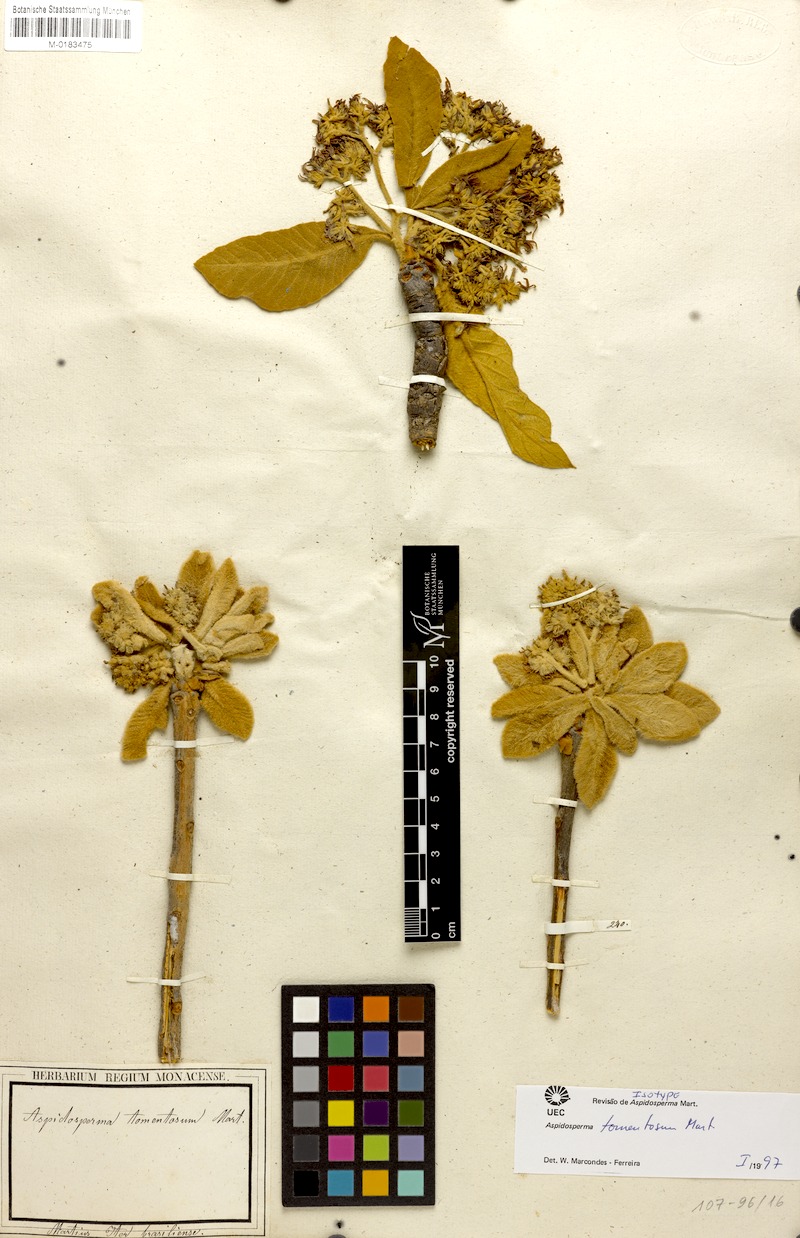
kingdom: Plantae
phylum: Tracheophyta
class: Magnoliopsida
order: Gentianales
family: Apocynaceae
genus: Aspidosperma
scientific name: Aspidosperma tomentosum
